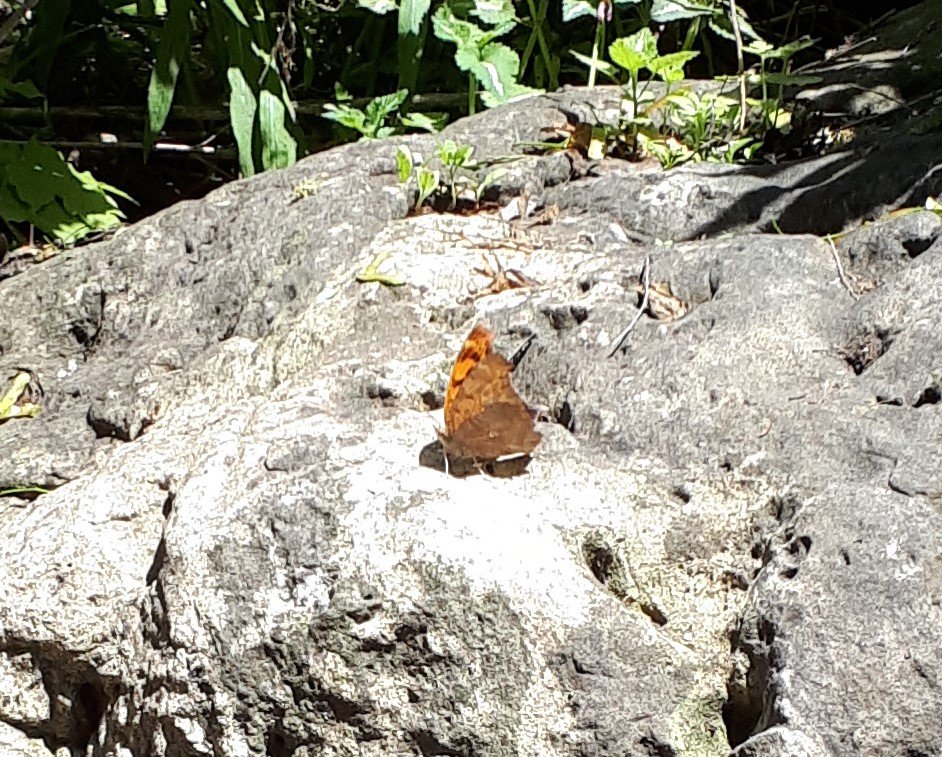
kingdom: Animalia
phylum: Arthropoda
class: Insecta
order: Lepidoptera
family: Nymphalidae
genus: Polygonia
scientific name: Polygonia
